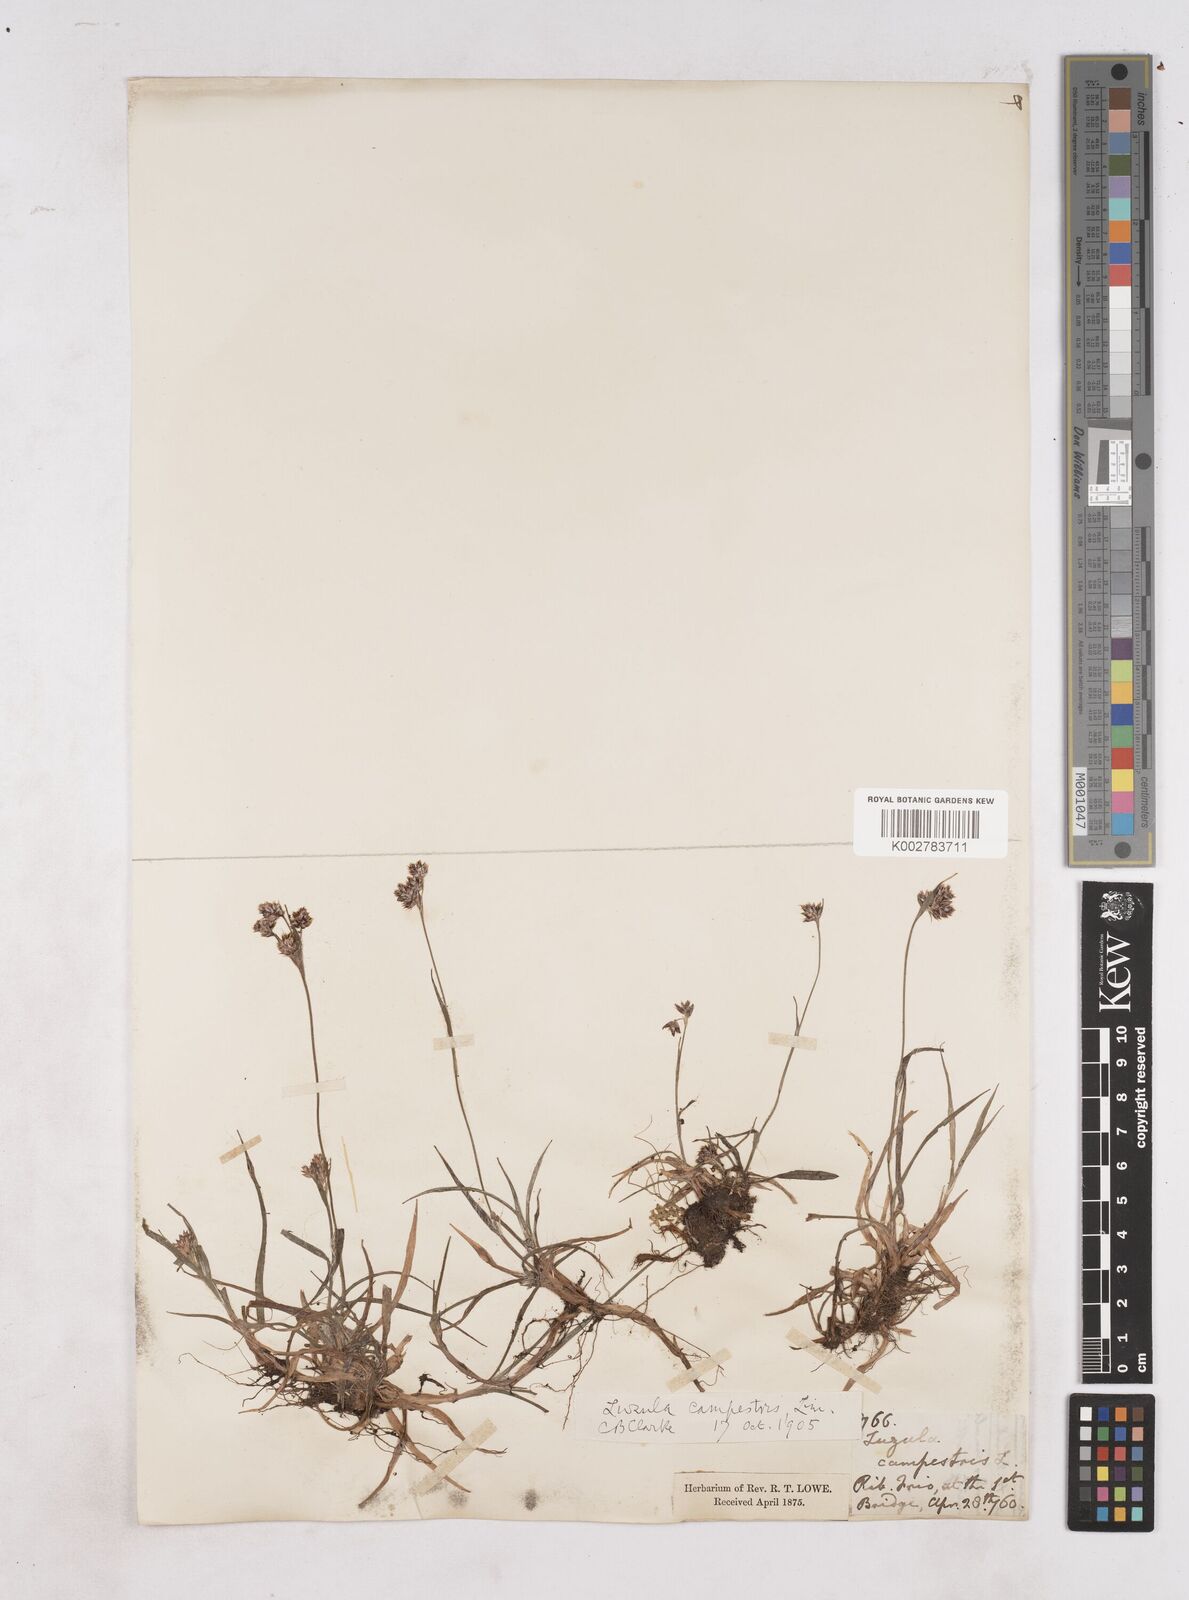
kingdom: Plantae
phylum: Tracheophyta
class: Liliopsida
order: Poales
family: Juncaceae
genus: Luzula
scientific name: Luzula campestris
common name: Field wood-rush
